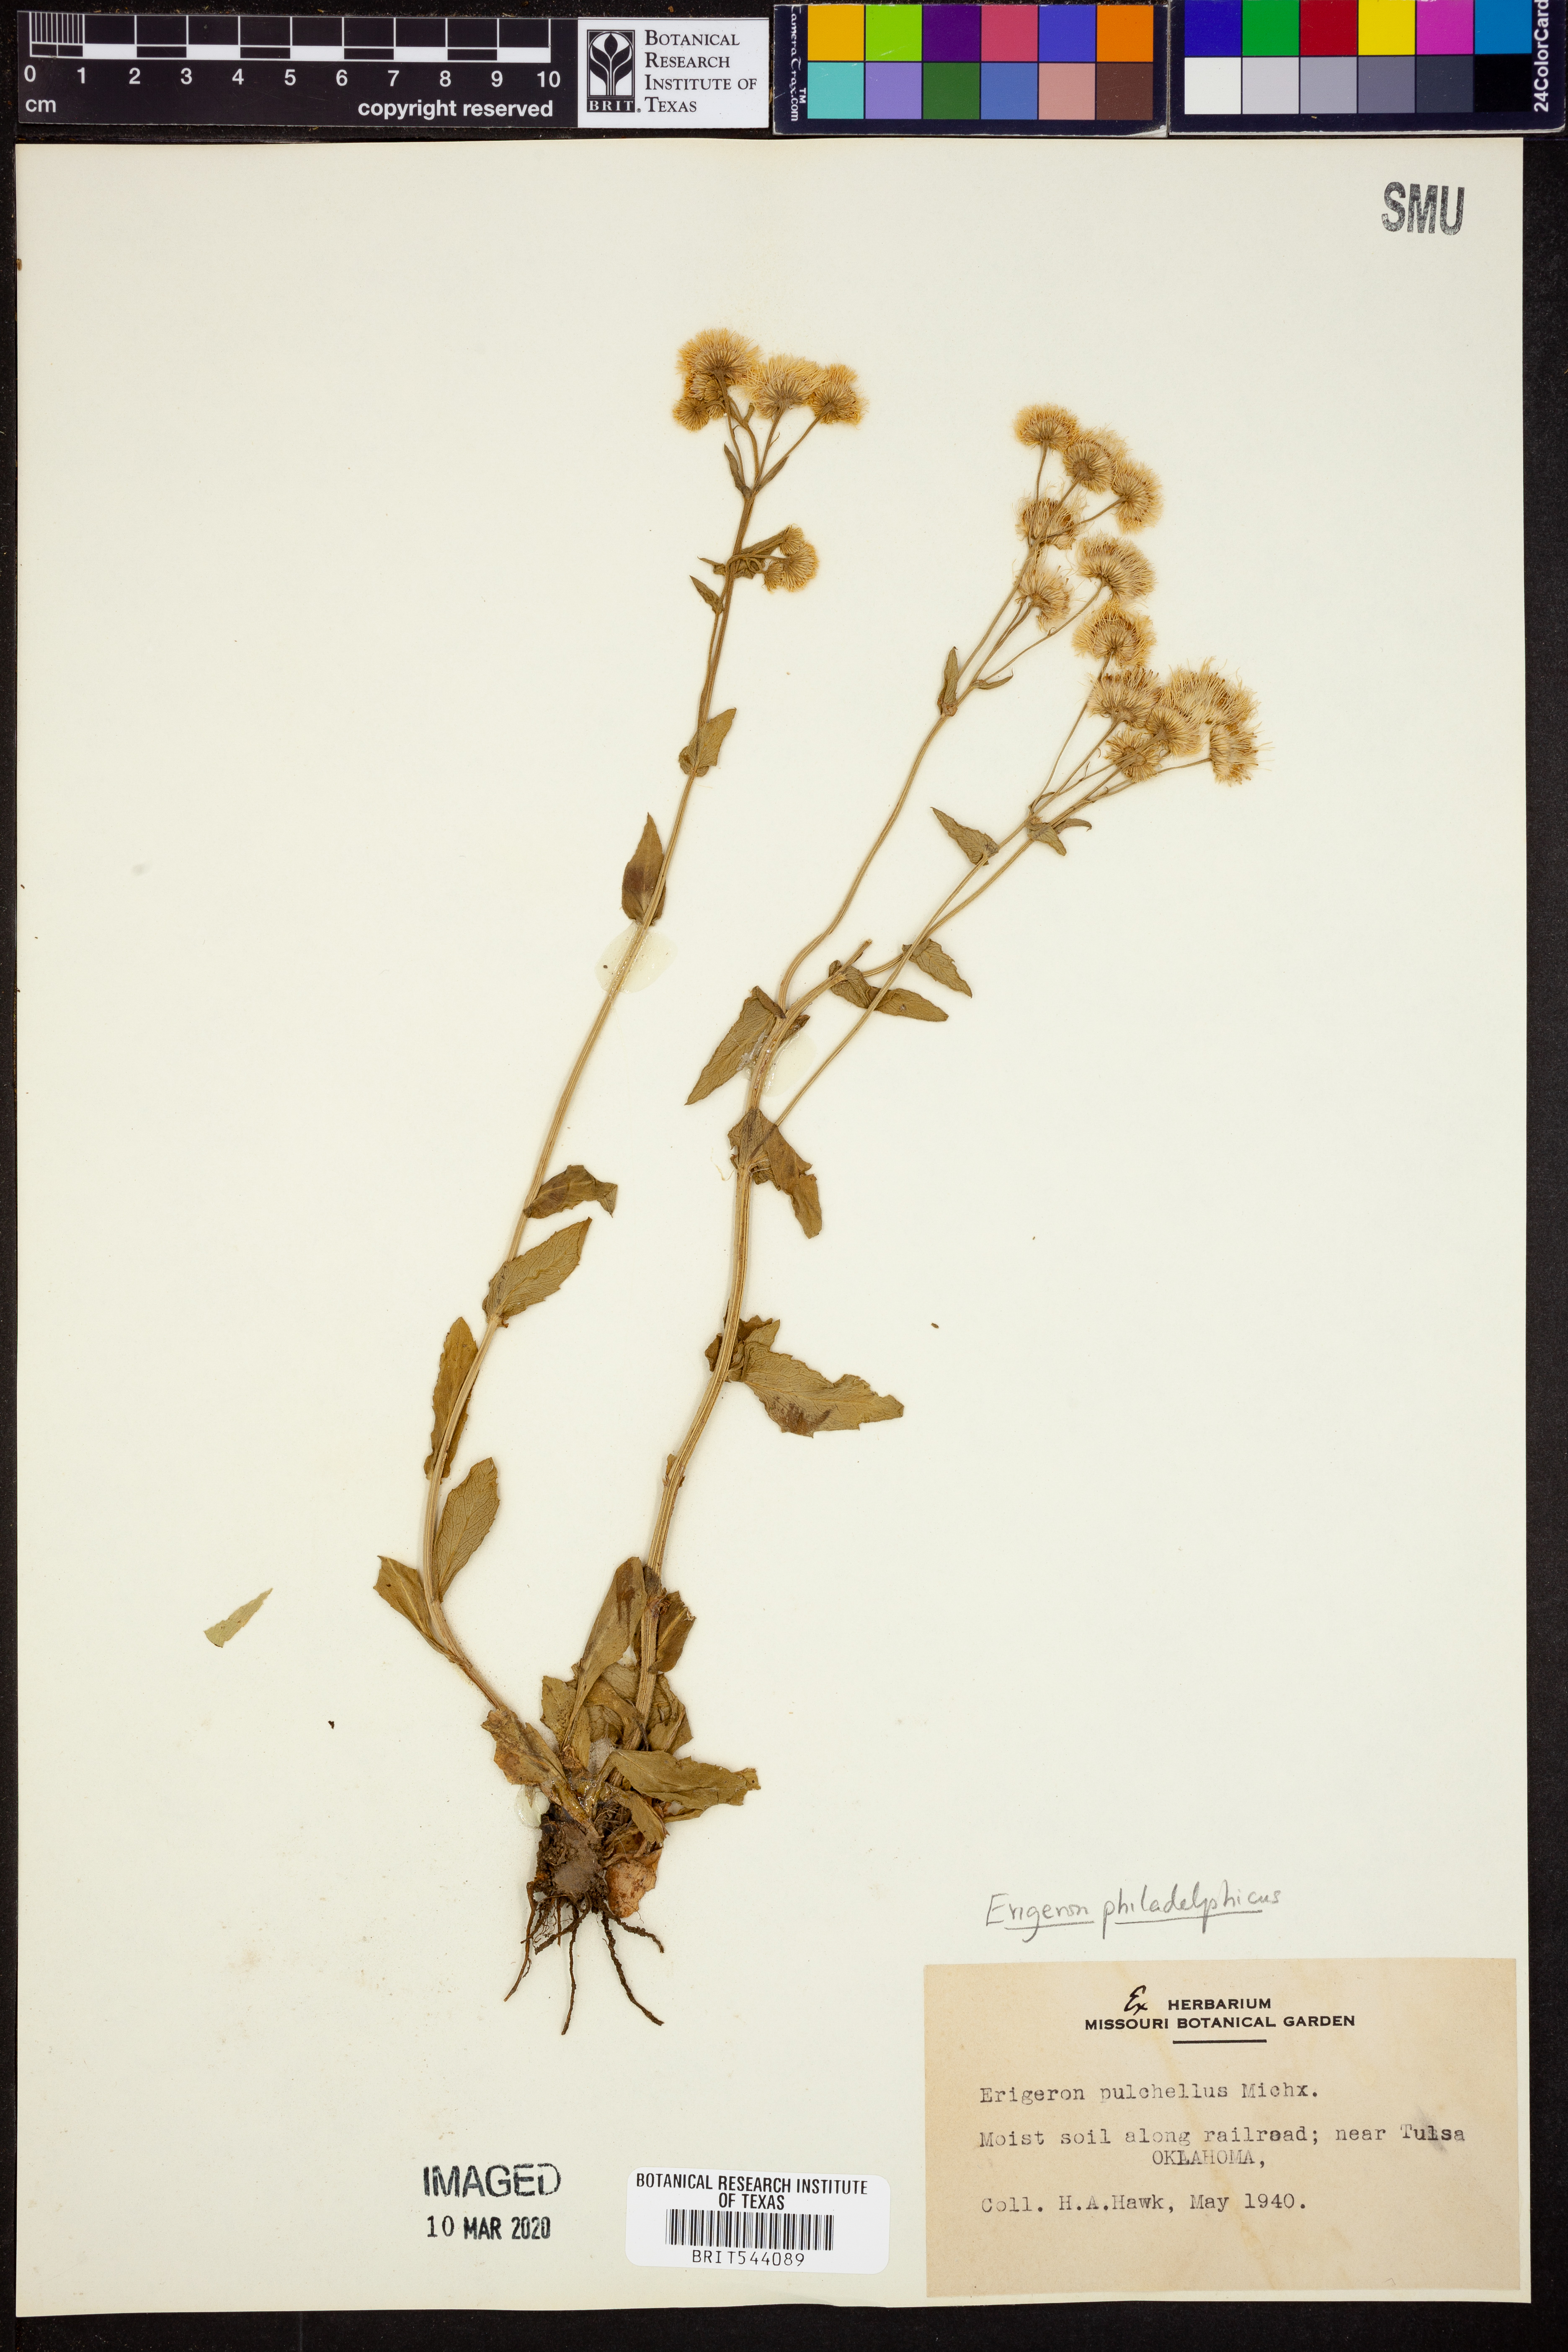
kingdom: Plantae
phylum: Tracheophyta
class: Magnoliopsida
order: Asterales
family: Asteraceae
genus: Erigeron
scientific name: Erigeron philadelphicus
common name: Robin's-plantain
